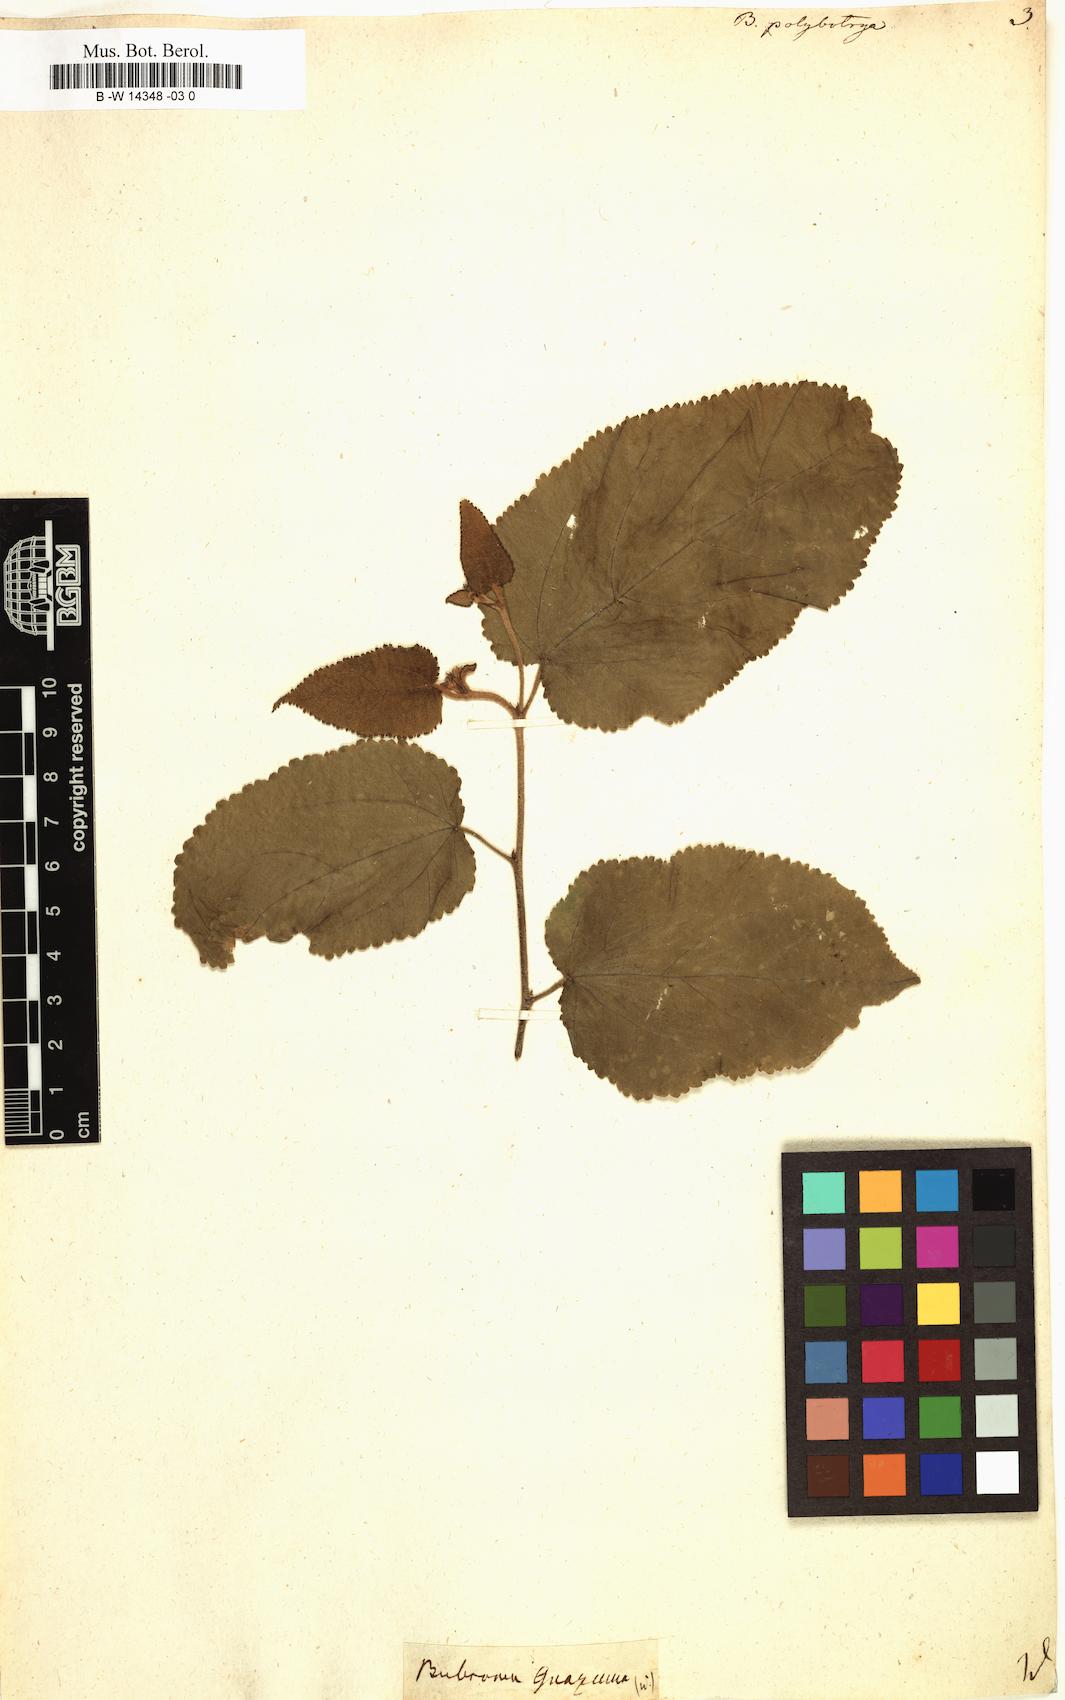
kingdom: Plantae
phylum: Tracheophyta
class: Magnoliopsida
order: Malvales
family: Malvaceae
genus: Guazuma
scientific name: Guazuma ulmifolia
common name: Bastard-cedar
